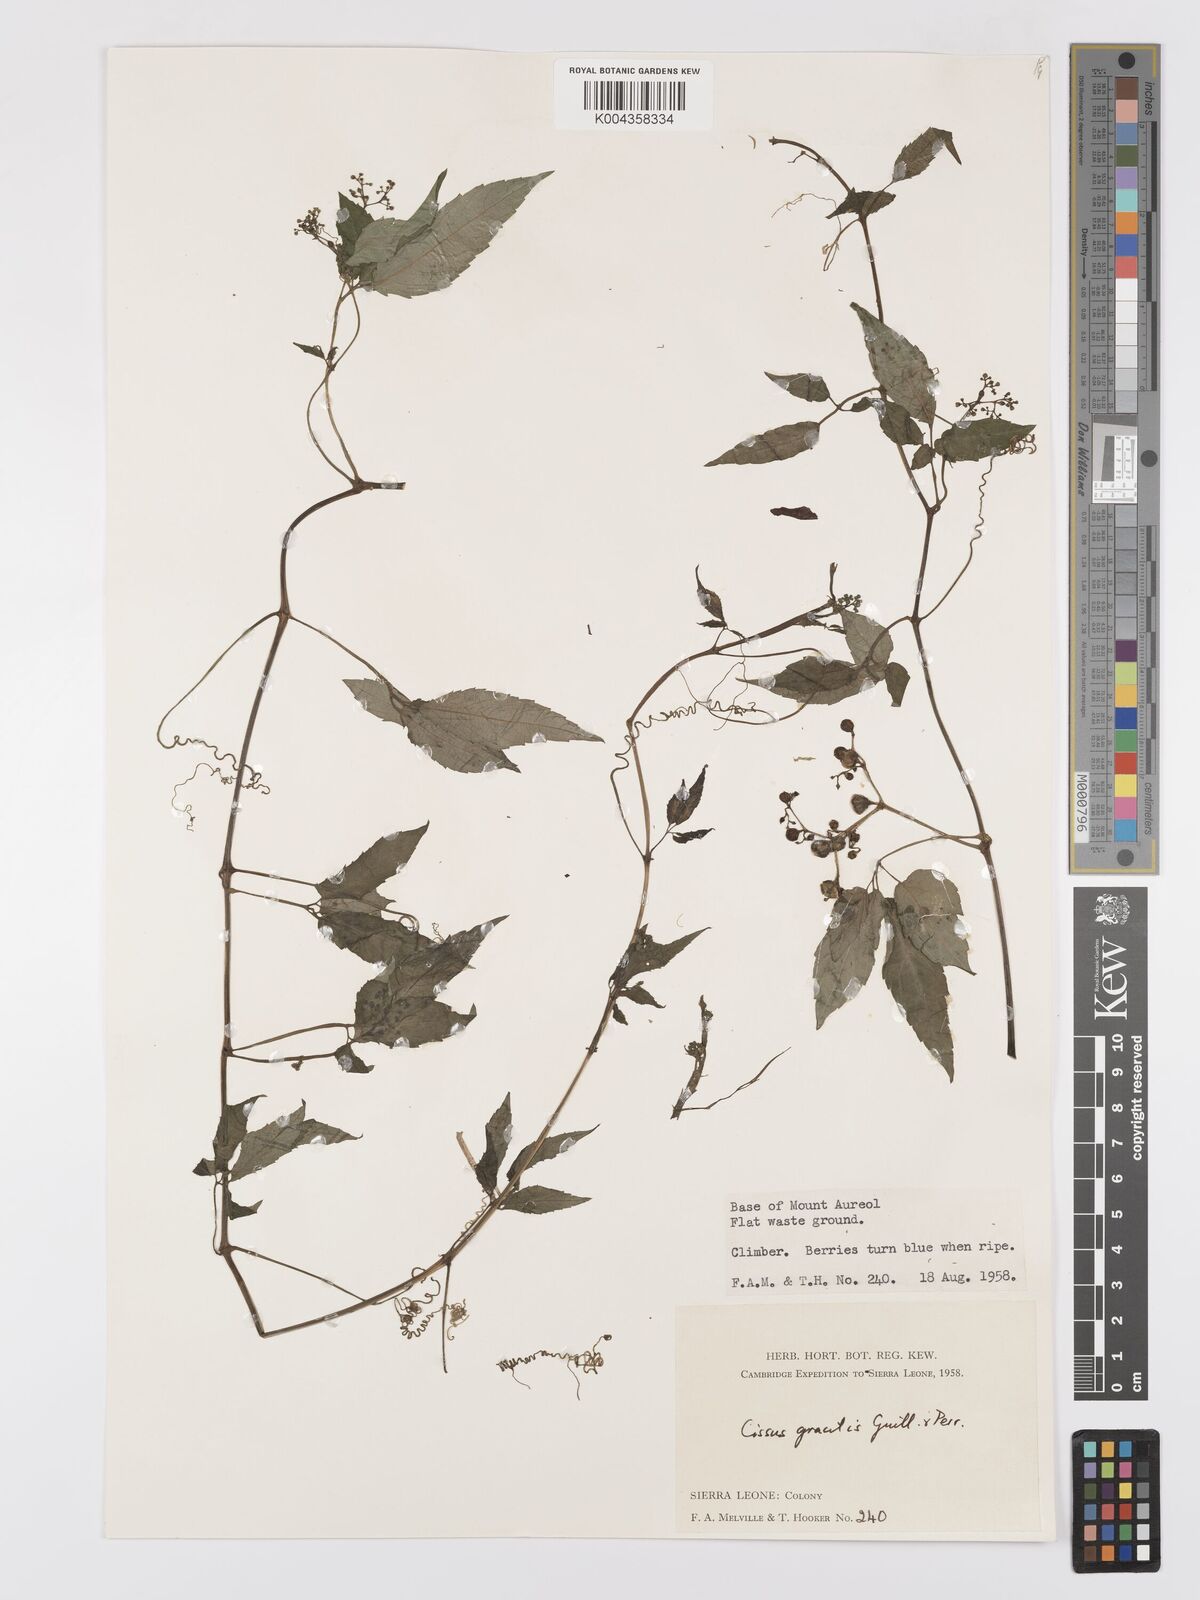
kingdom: Plantae
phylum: Tracheophyta
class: Magnoliopsida
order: Vitales
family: Vitaceae
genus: Afrocayratia
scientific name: Afrocayratia gracilis
